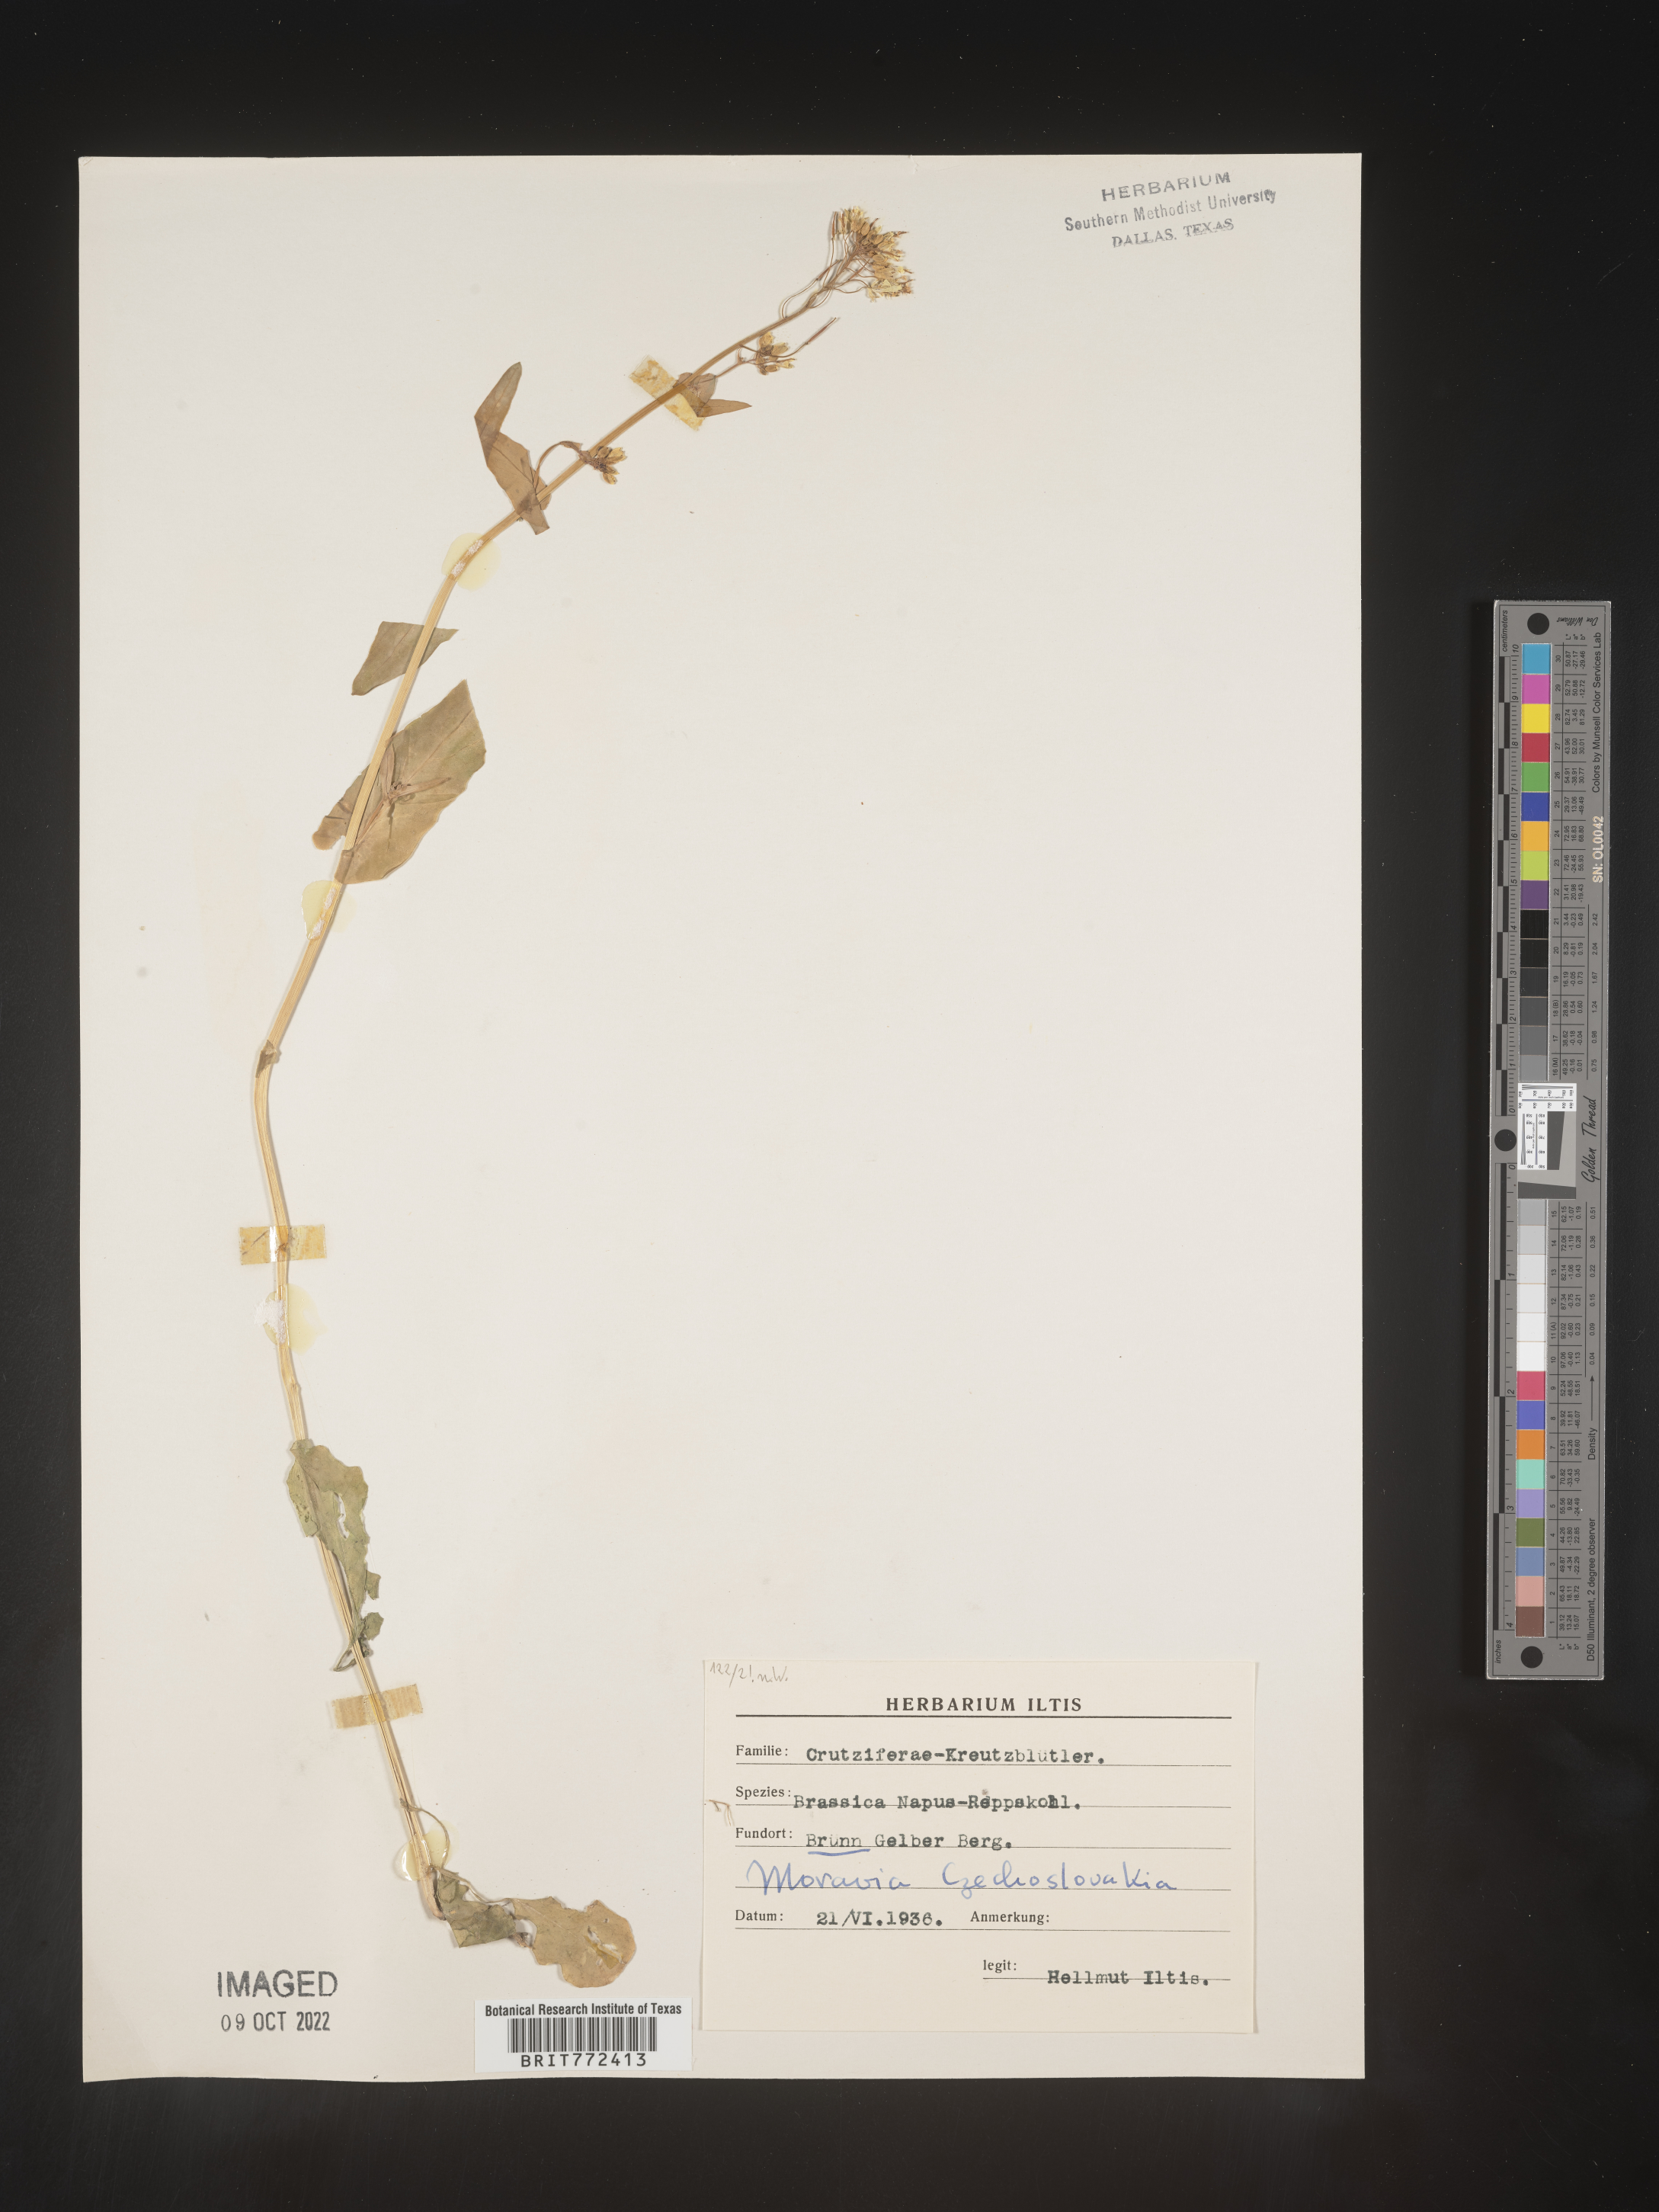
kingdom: Plantae
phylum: Tracheophyta
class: Magnoliopsida
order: Brassicales
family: Brassicaceae
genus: Brassica
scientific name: Brassica
